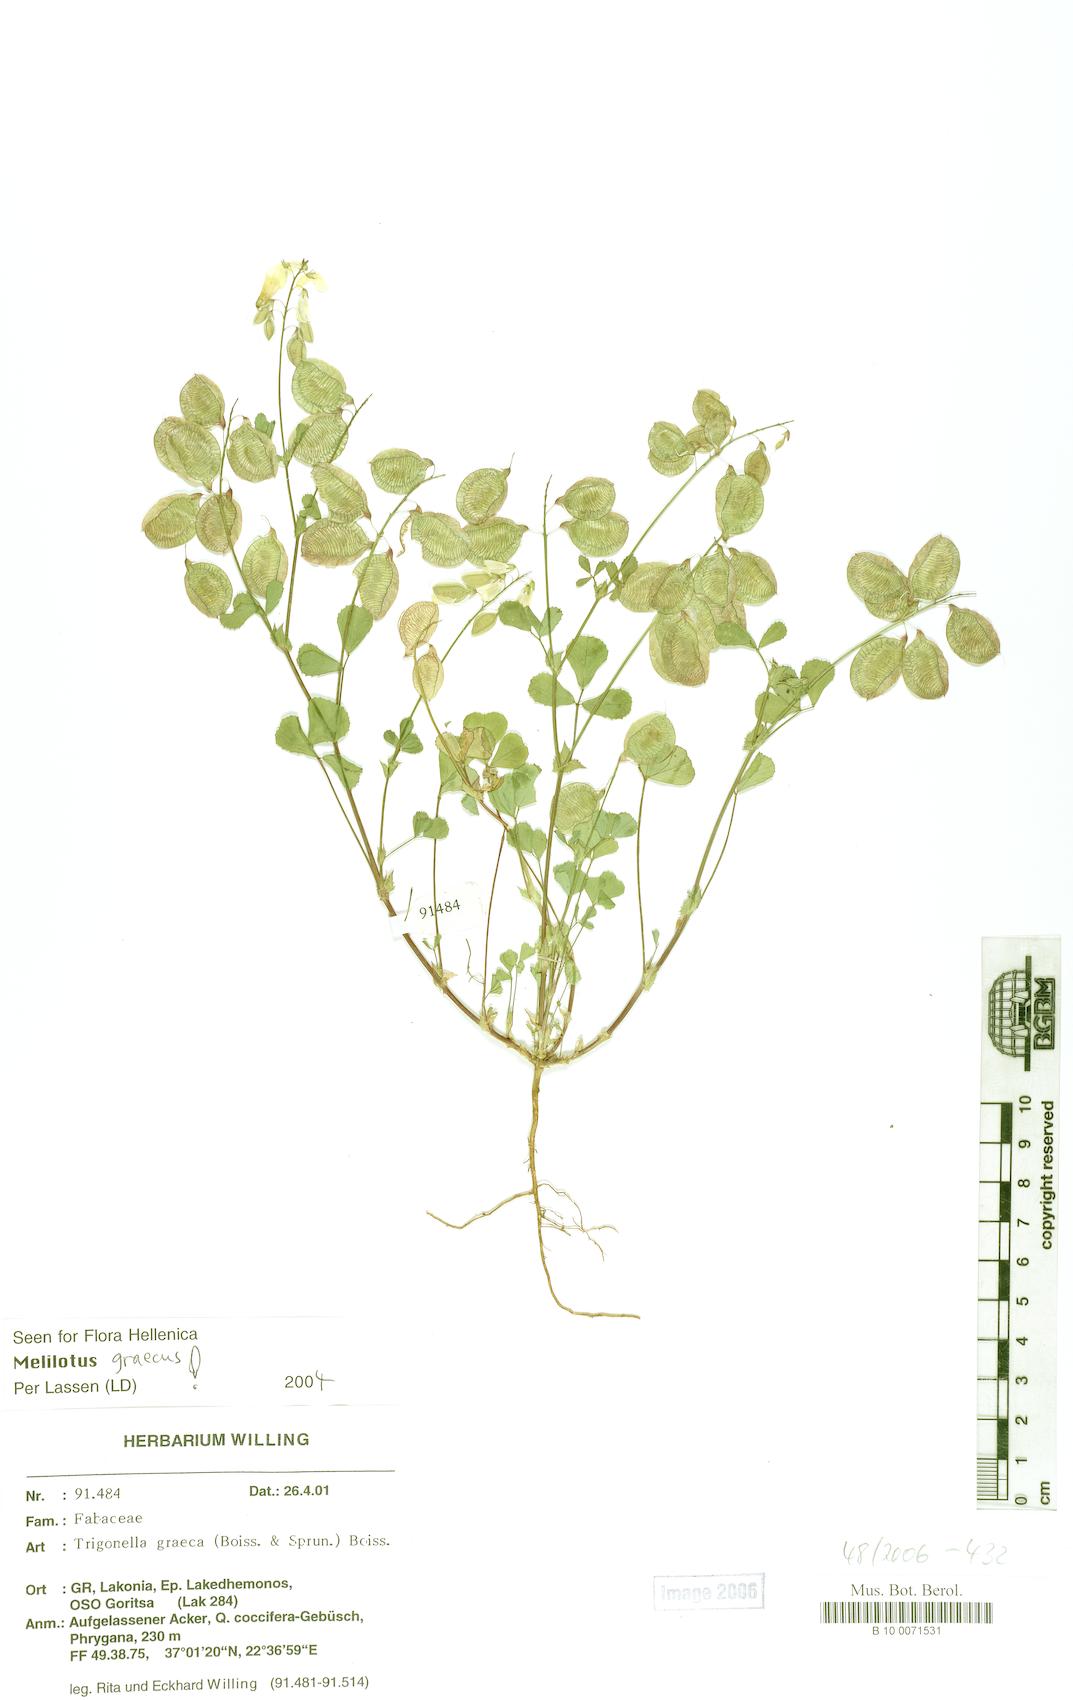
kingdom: Plantae
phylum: Tracheophyta
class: Magnoliopsida
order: Fabales
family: Fabaceae
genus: Trigonella
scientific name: Trigonella graeca
